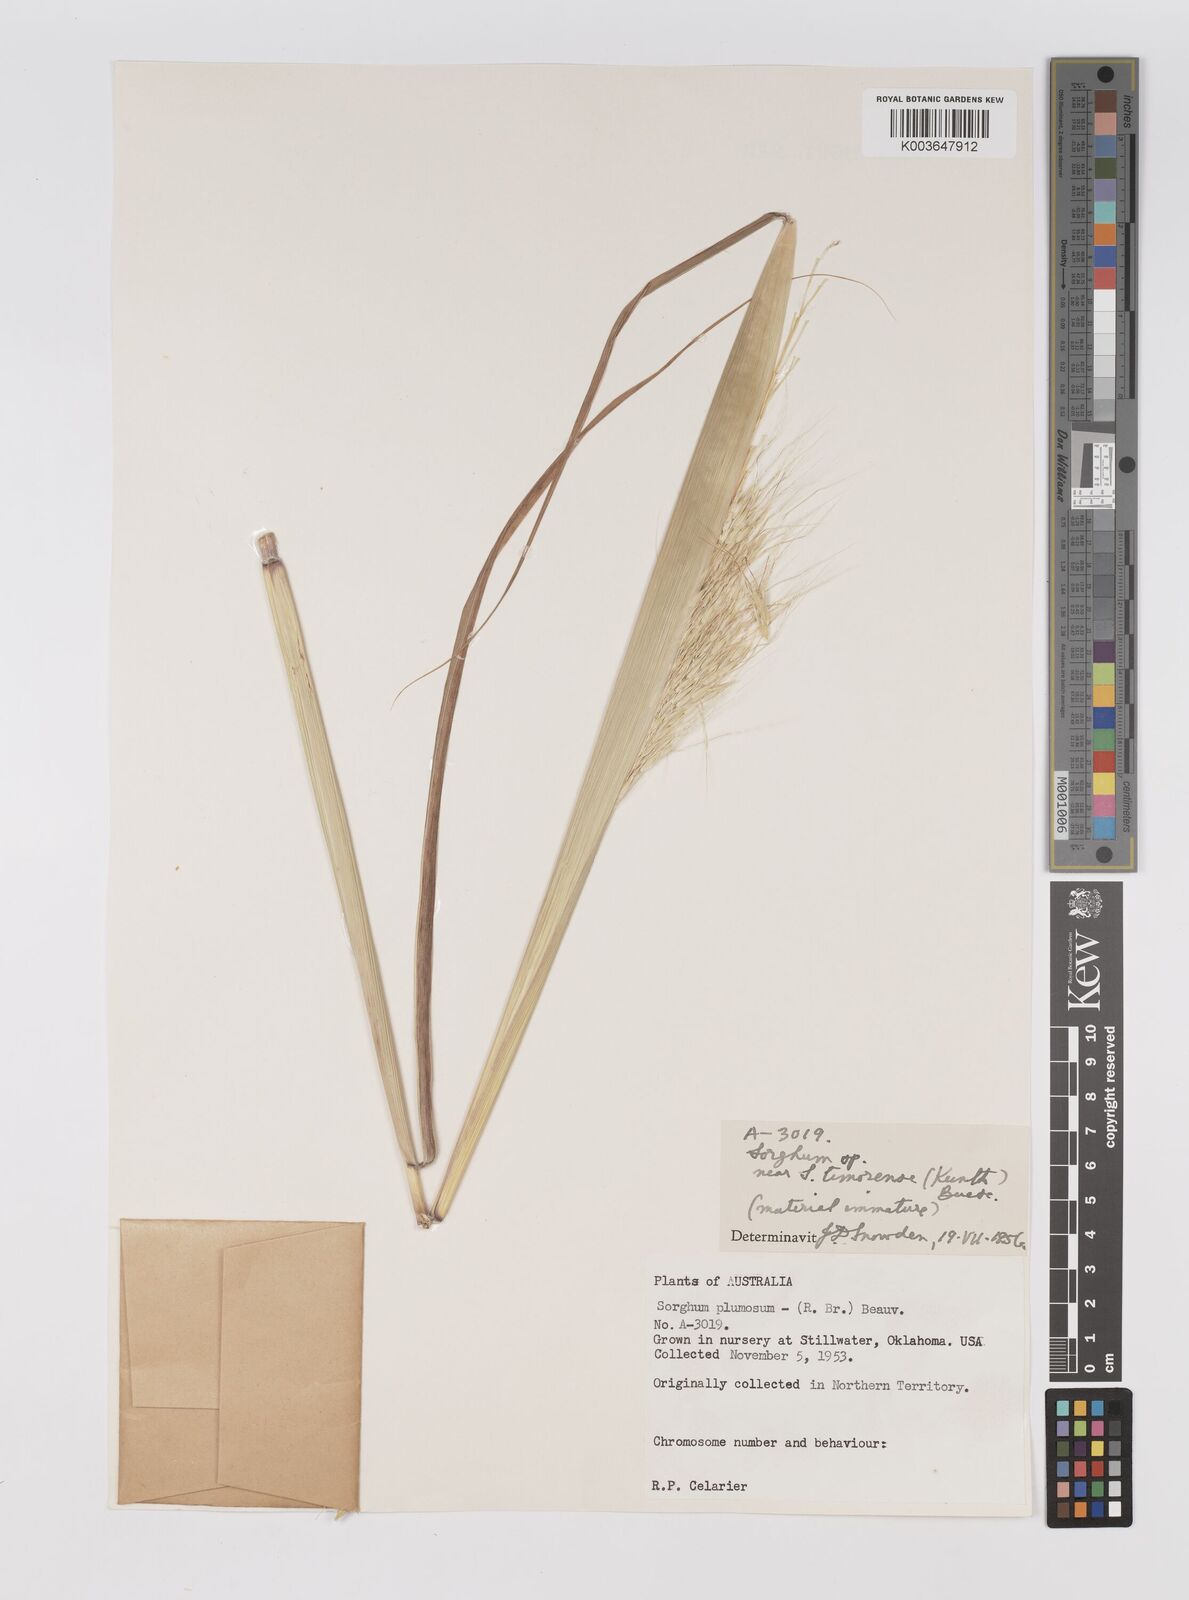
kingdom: Plantae
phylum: Tracheophyta
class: Liliopsida
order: Poales
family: Poaceae
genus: Sarga
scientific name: Sarga timorensis
